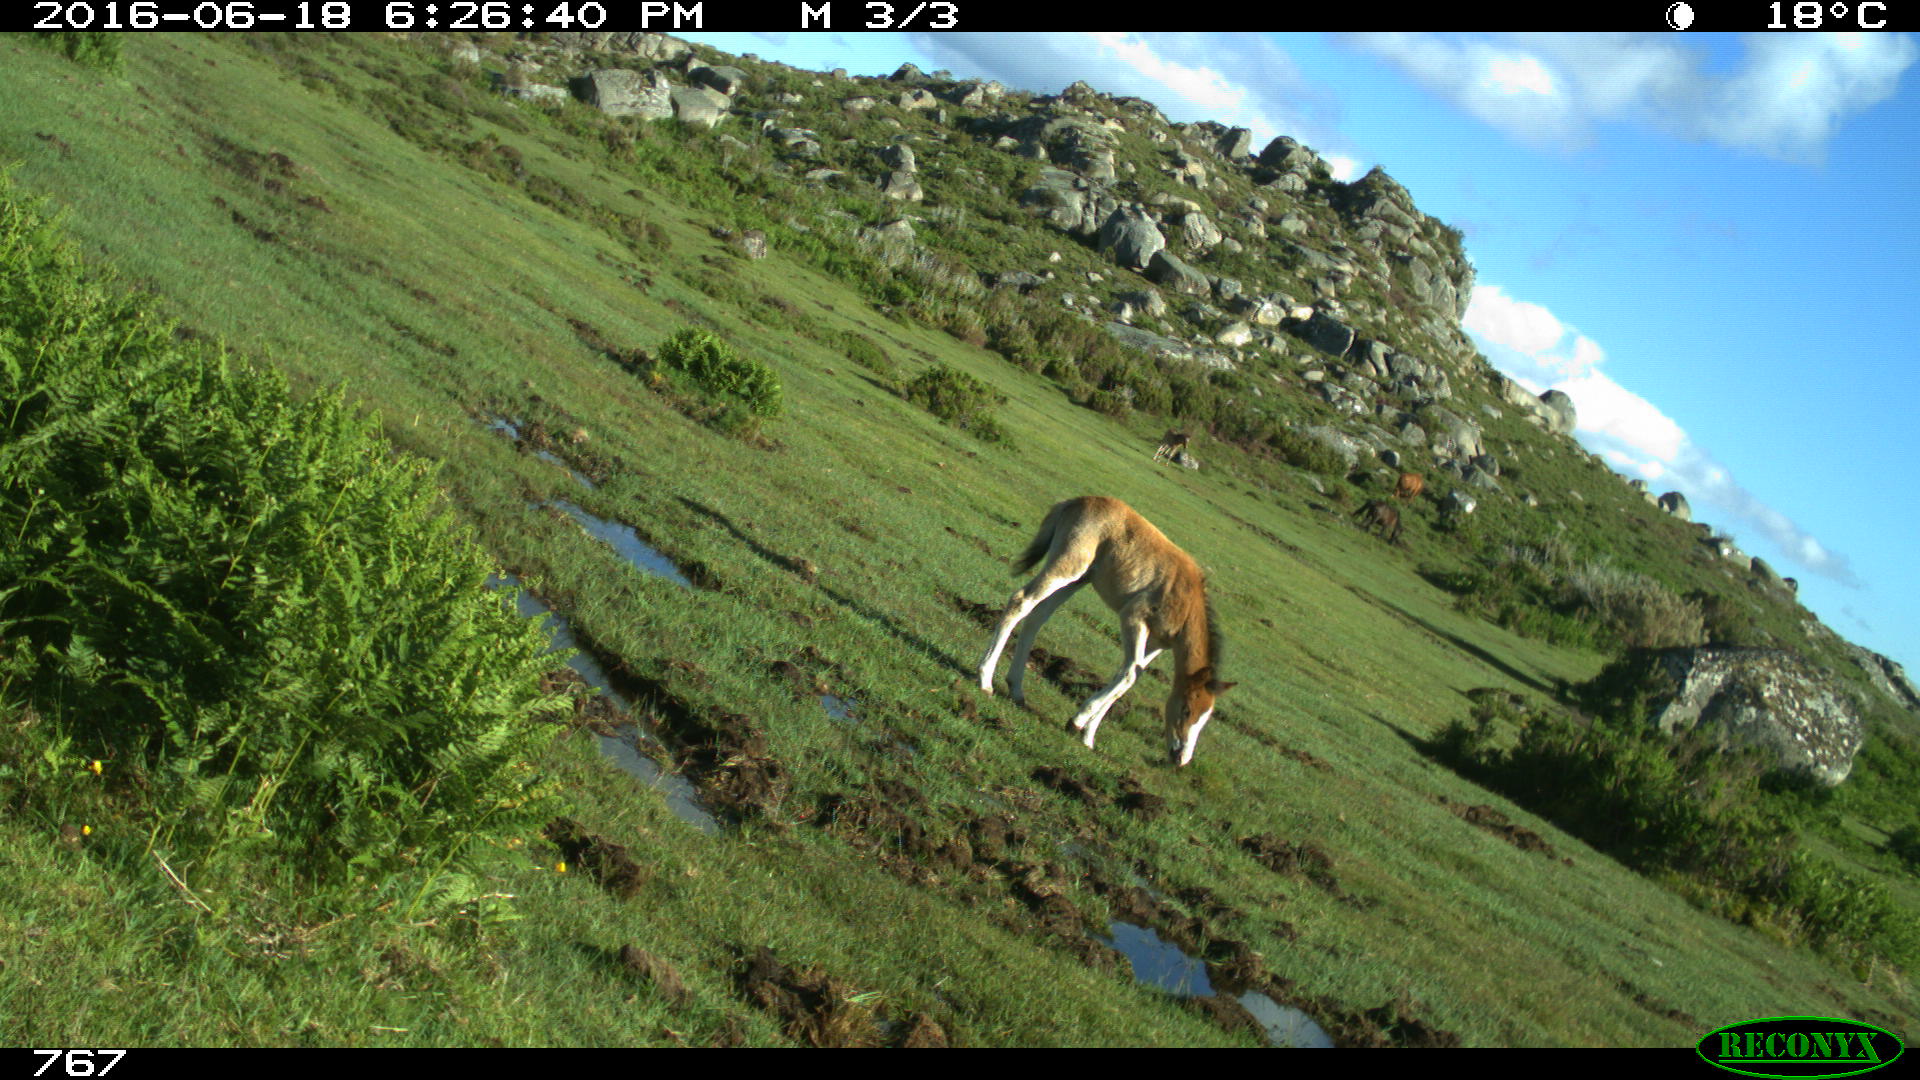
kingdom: Animalia
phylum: Chordata
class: Mammalia
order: Perissodactyla
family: Equidae
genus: Equus
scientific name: Equus caballus
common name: Horse
